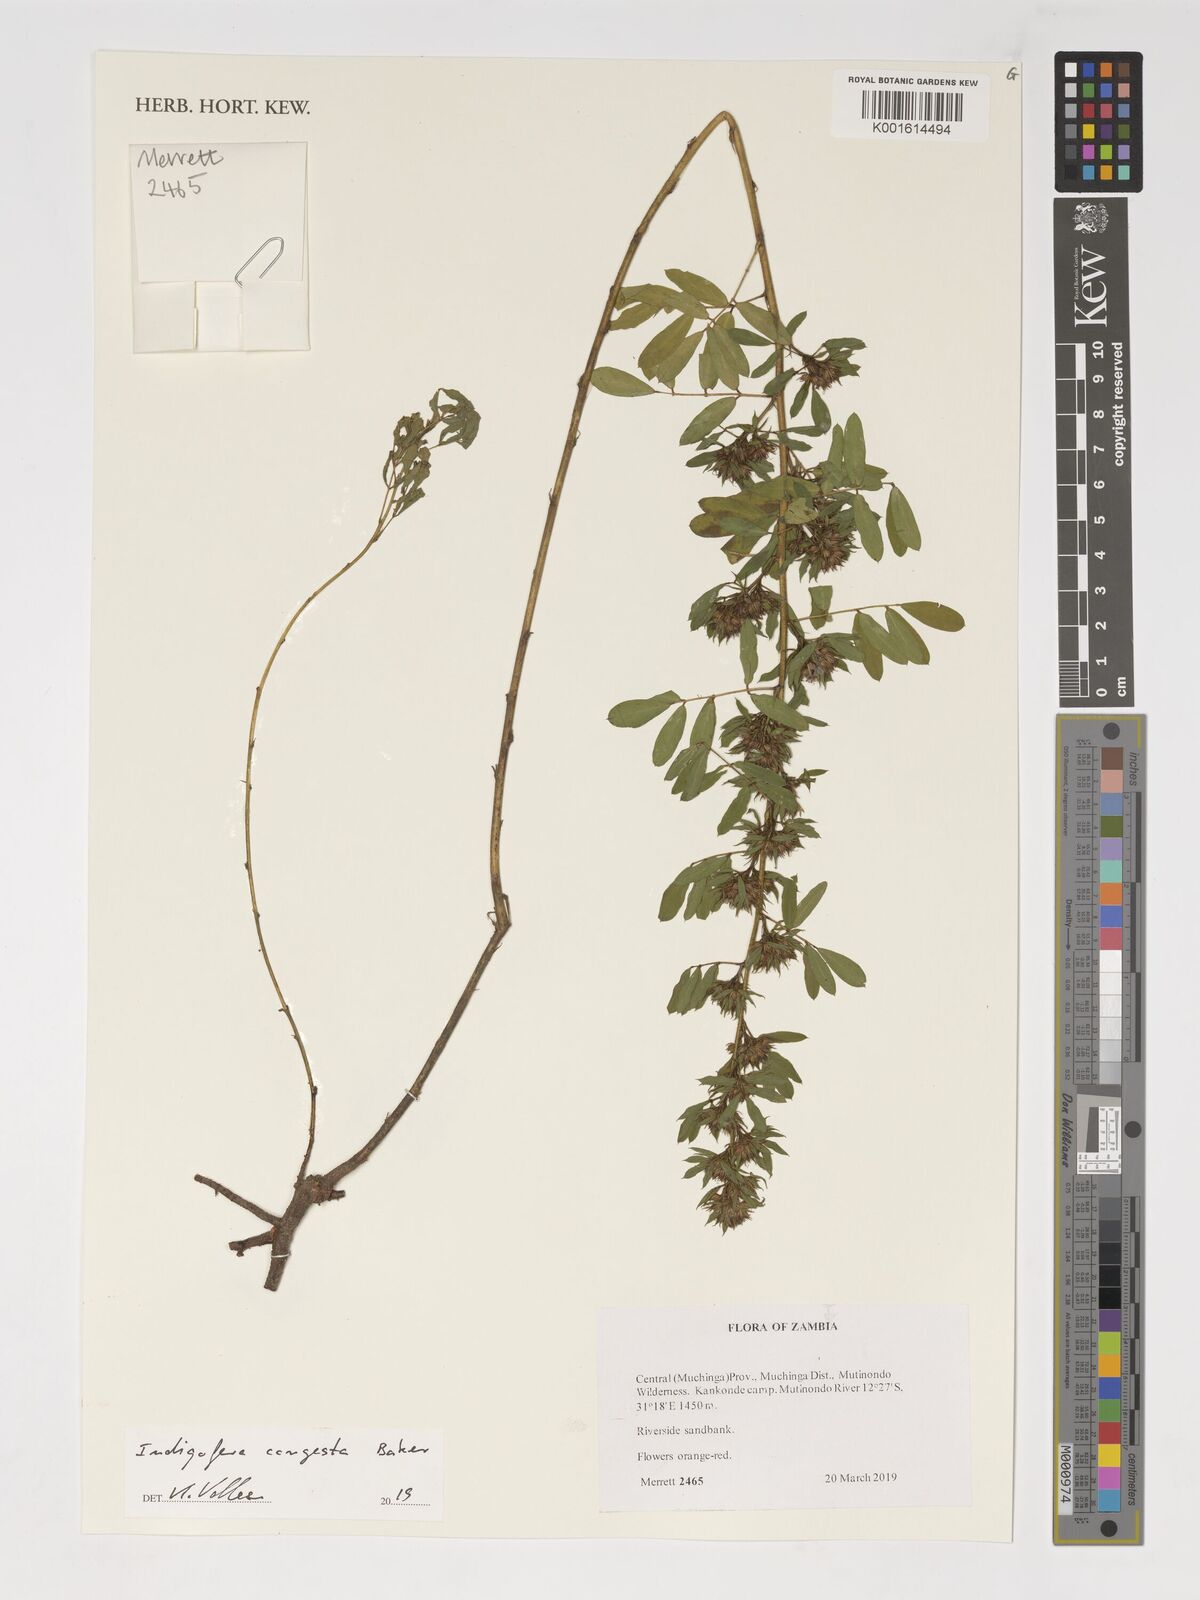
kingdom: Plantae
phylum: Tracheophyta
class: Magnoliopsida
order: Fabales
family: Fabaceae
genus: Indigofera
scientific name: Indigofera congesta
